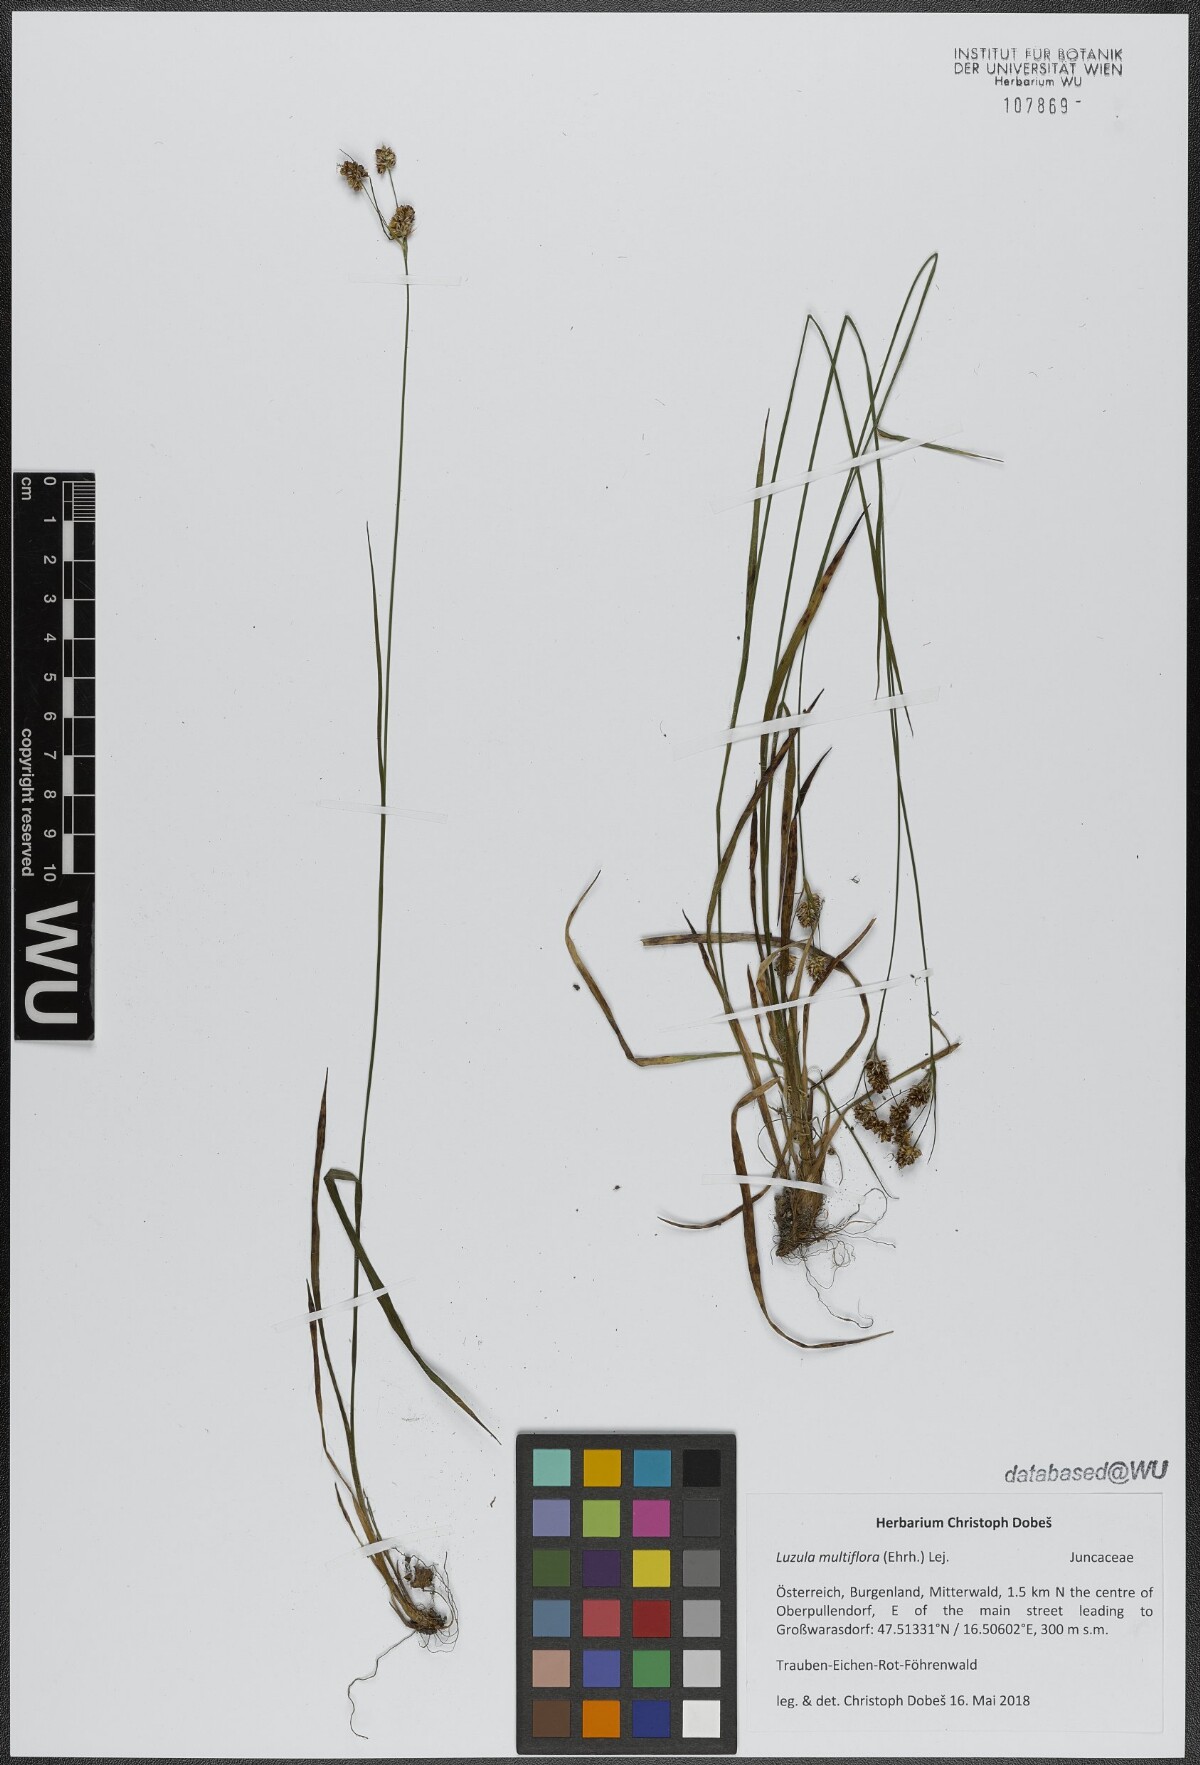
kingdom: Plantae
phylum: Tracheophyta
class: Liliopsida
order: Poales
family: Juncaceae
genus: Luzula
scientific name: Luzula multiflora
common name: Heath wood-rush
